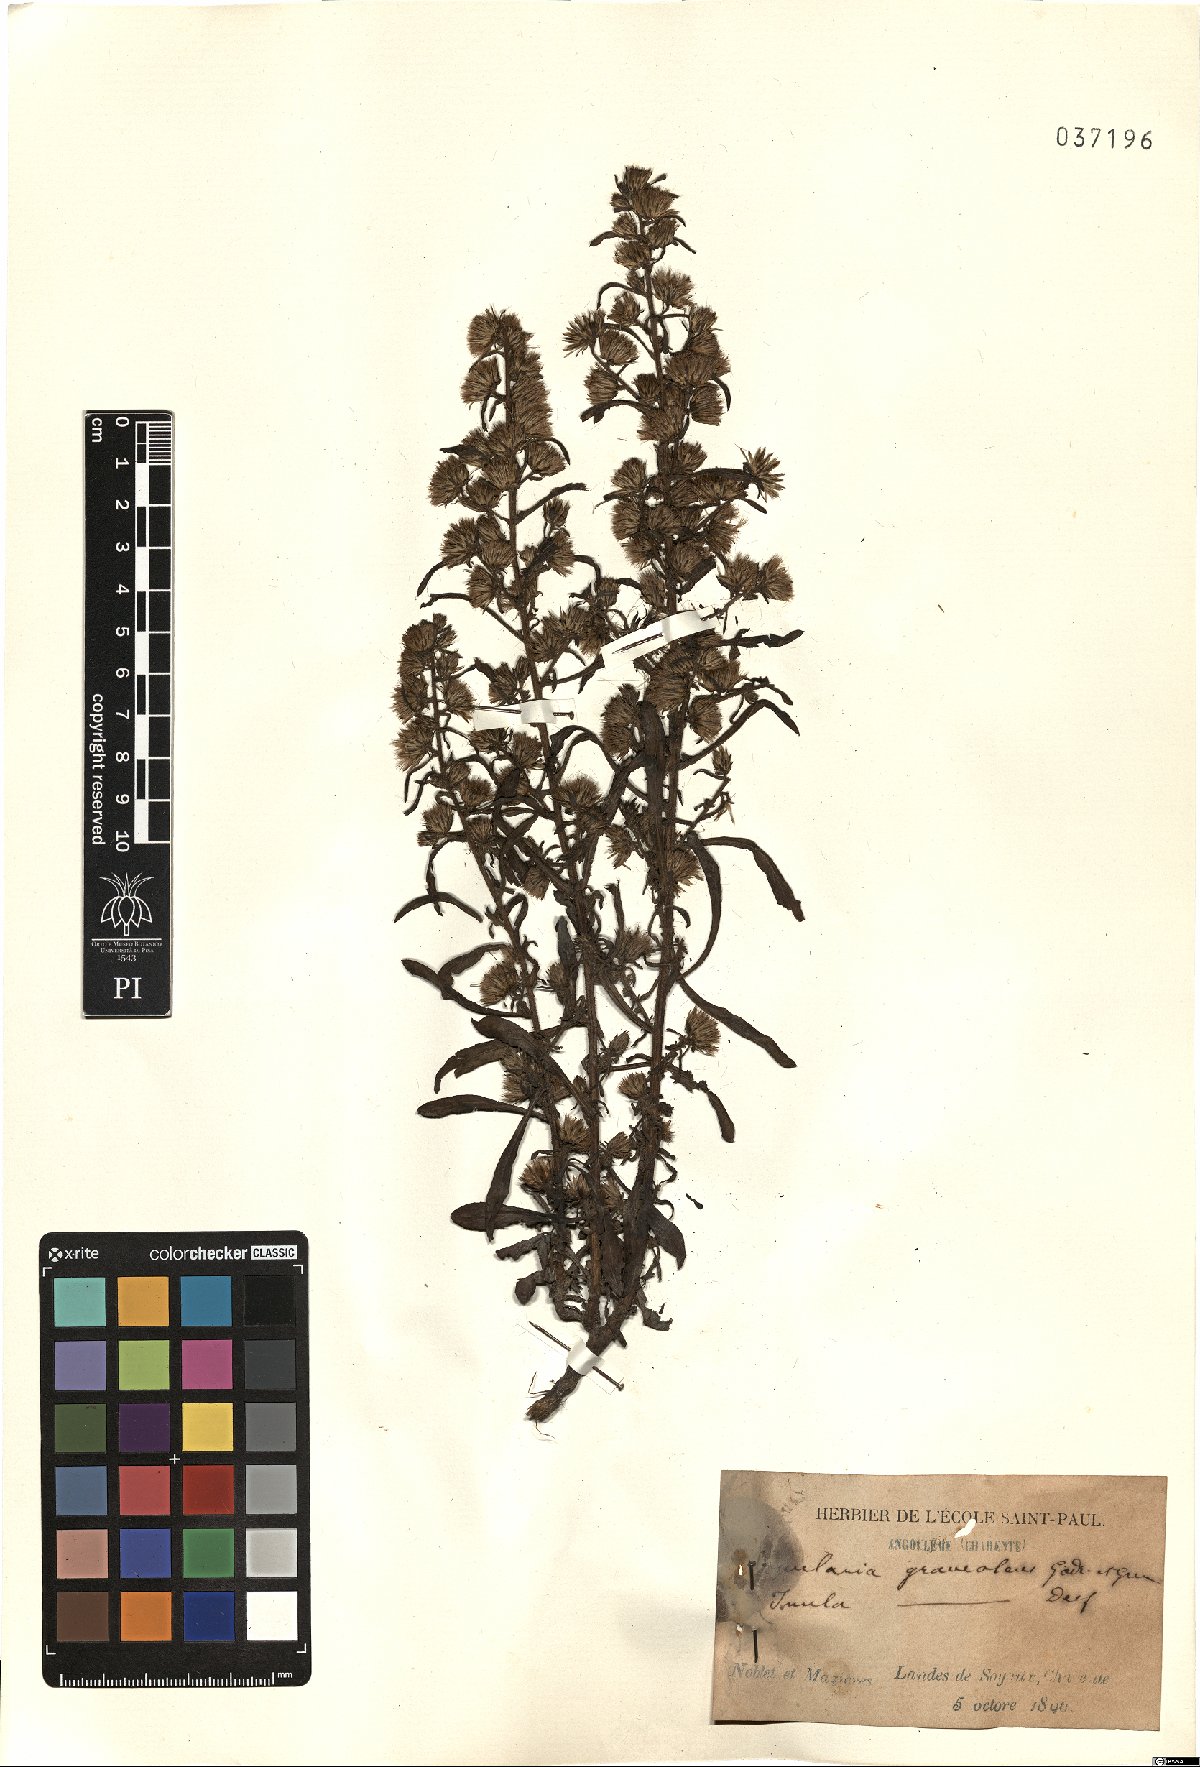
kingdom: Plantae
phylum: Tracheophyta
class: Magnoliopsida
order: Asterales
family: Asteraceae
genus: Dittrichia
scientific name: Dittrichia graveolens
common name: Stinking fleabane
